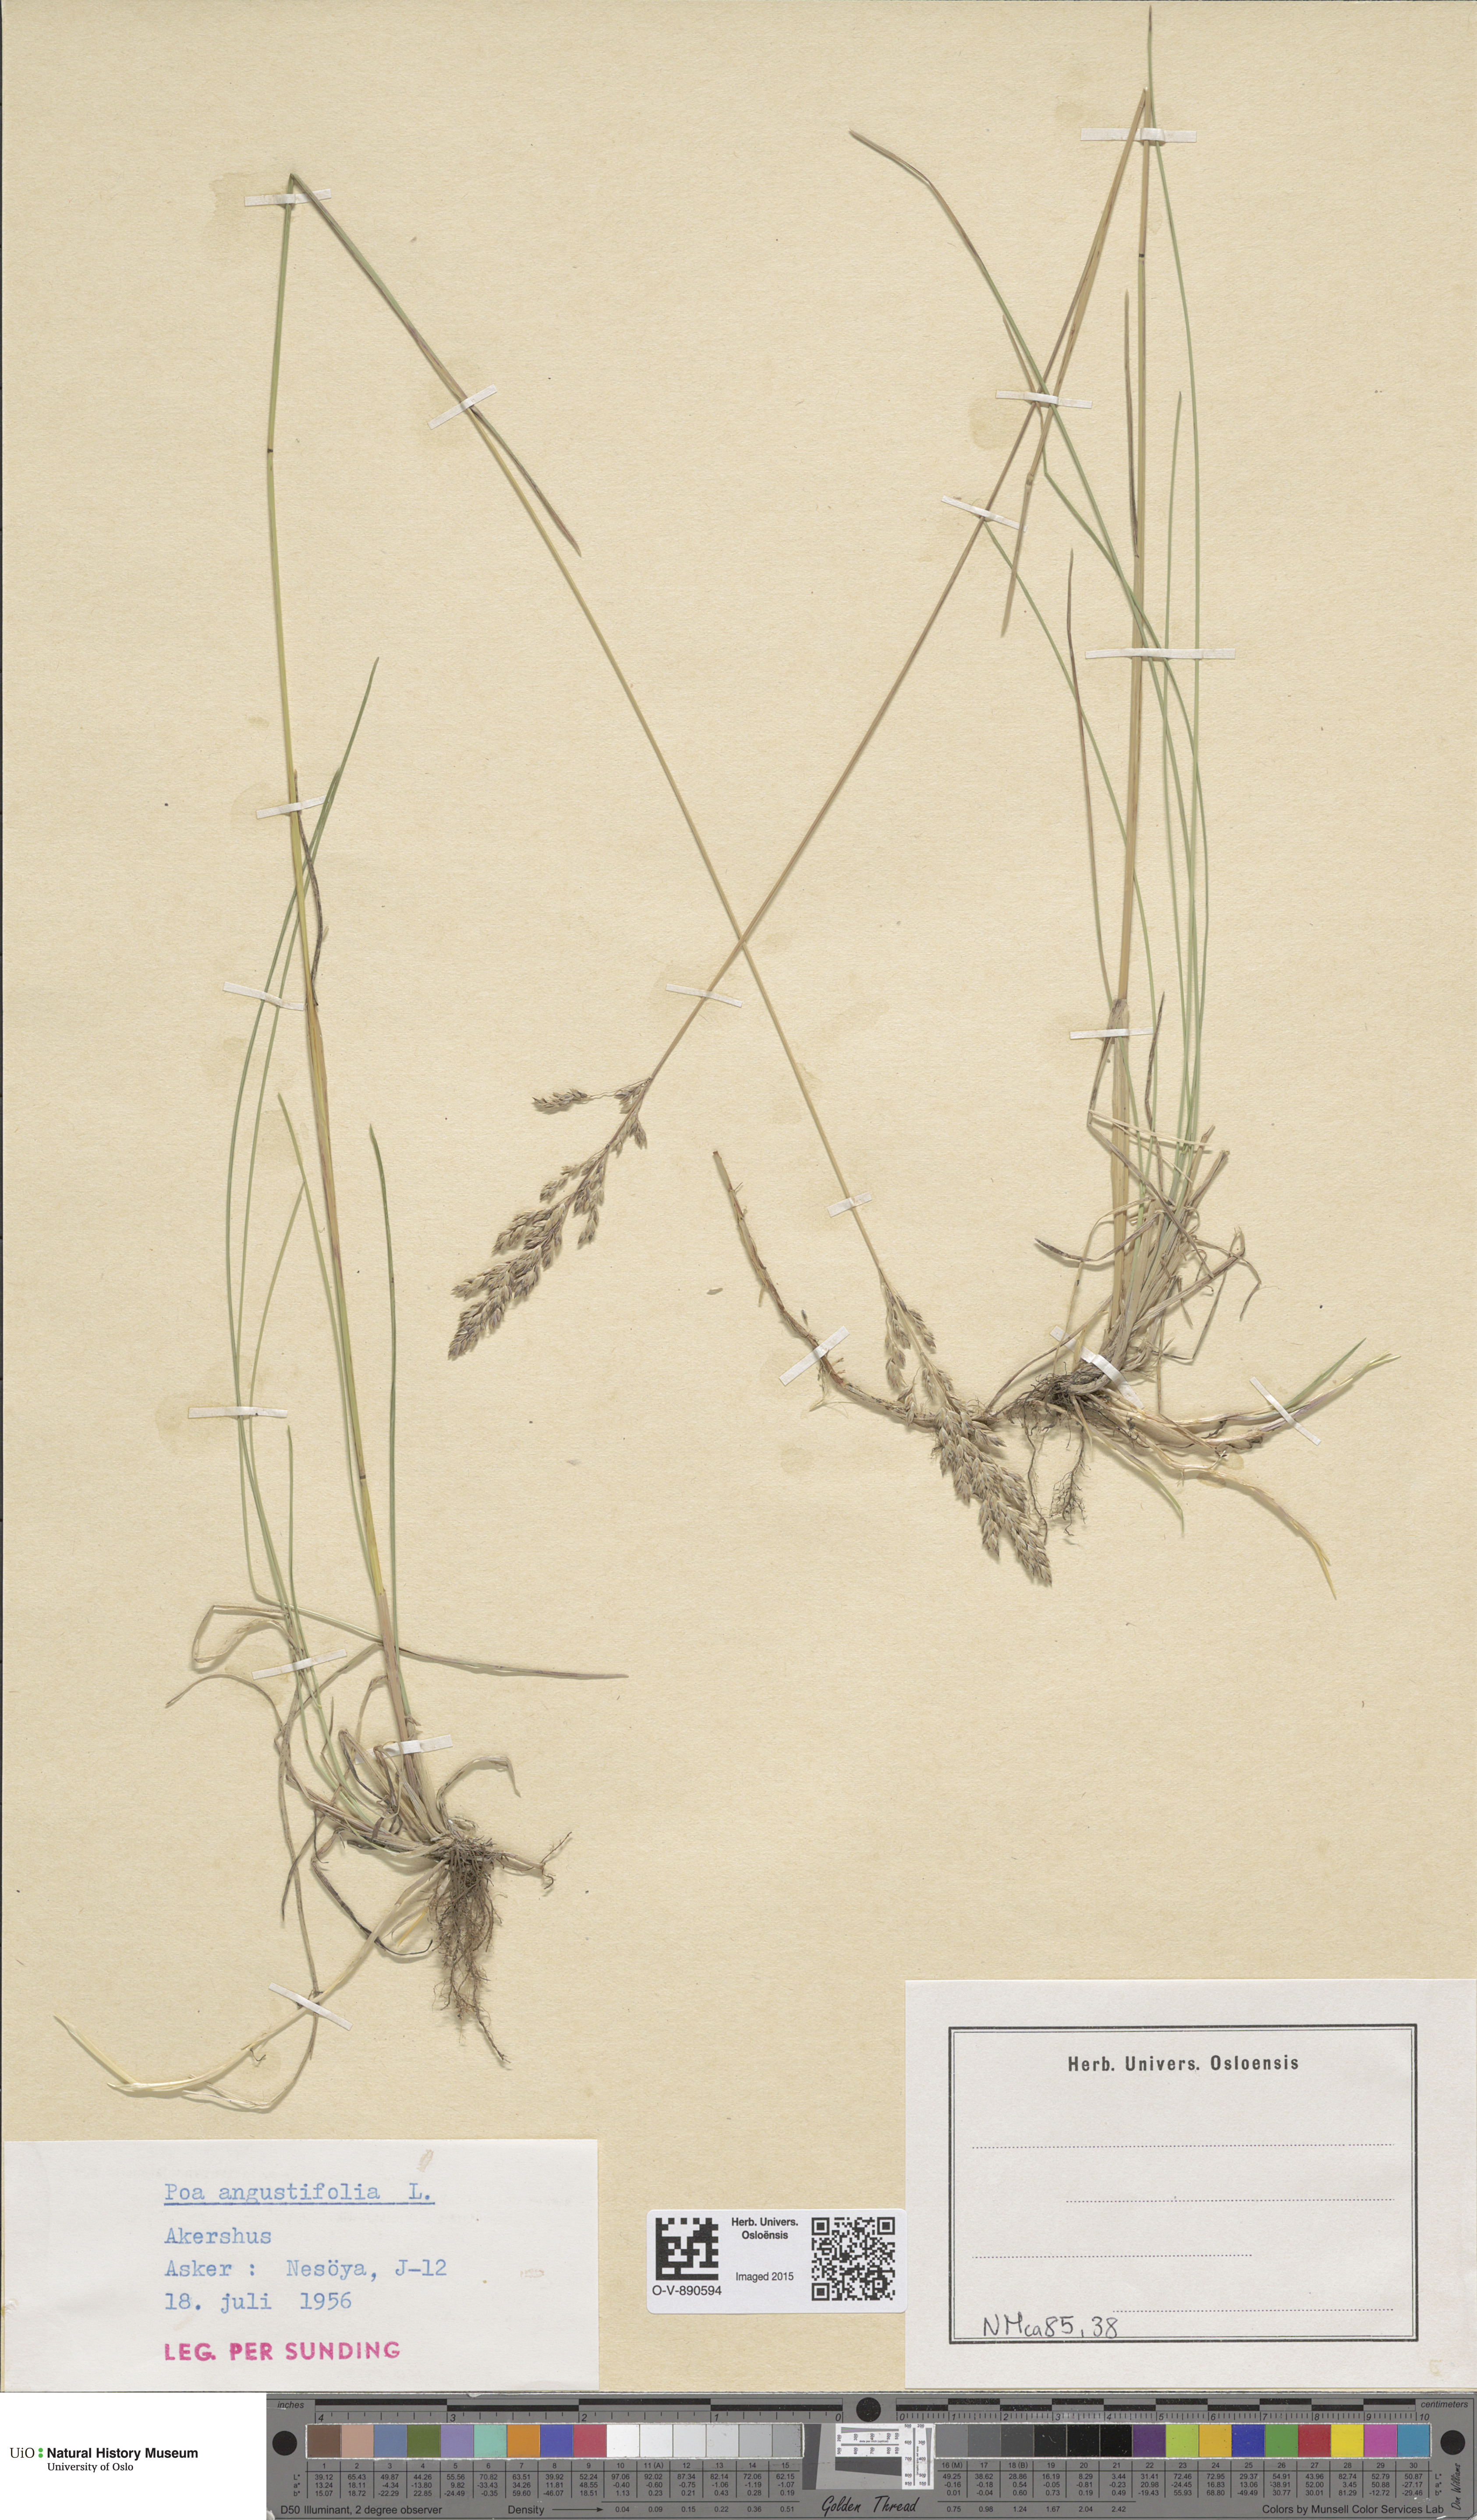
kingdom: Plantae
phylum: Tracheophyta
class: Liliopsida
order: Poales
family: Poaceae
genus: Poa
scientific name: Poa angustifolia
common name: Narrow-leaved meadow-grass
